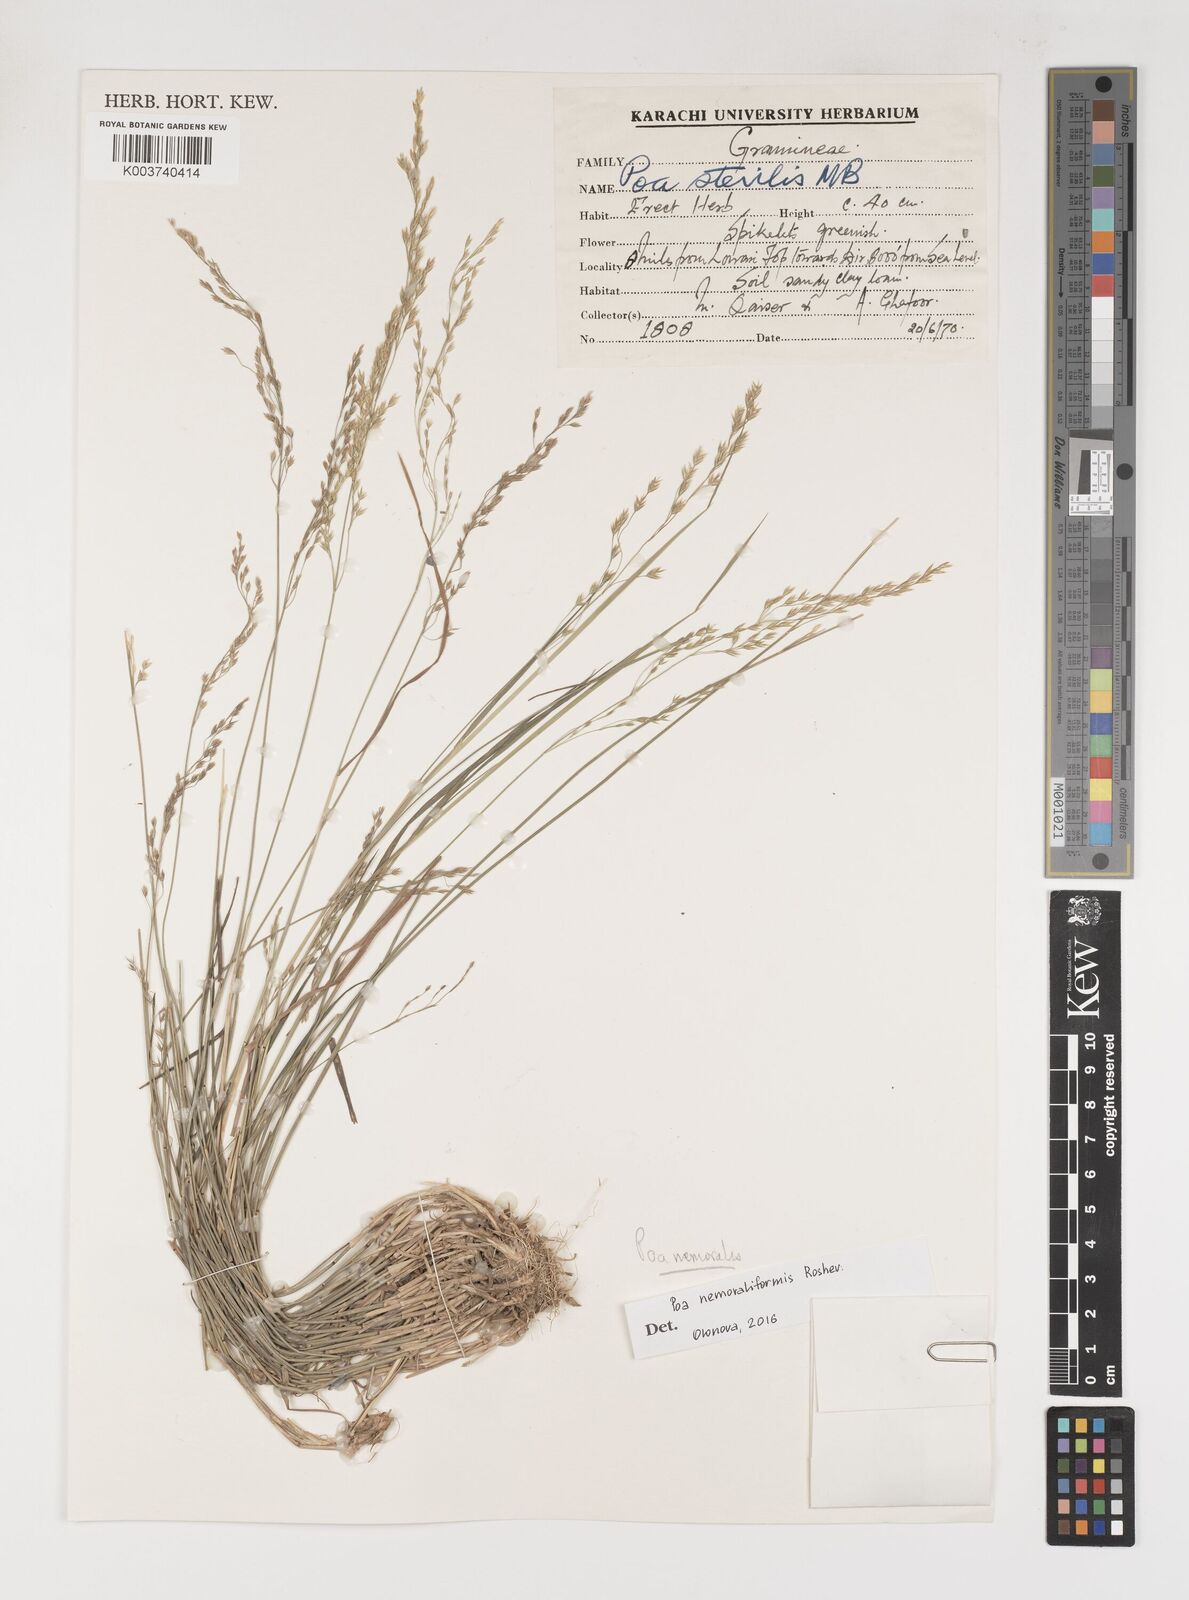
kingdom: Plantae
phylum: Tracheophyta
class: Liliopsida
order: Poales
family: Poaceae
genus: Poa
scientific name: Poa nemoralis
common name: Wood bluegrass
